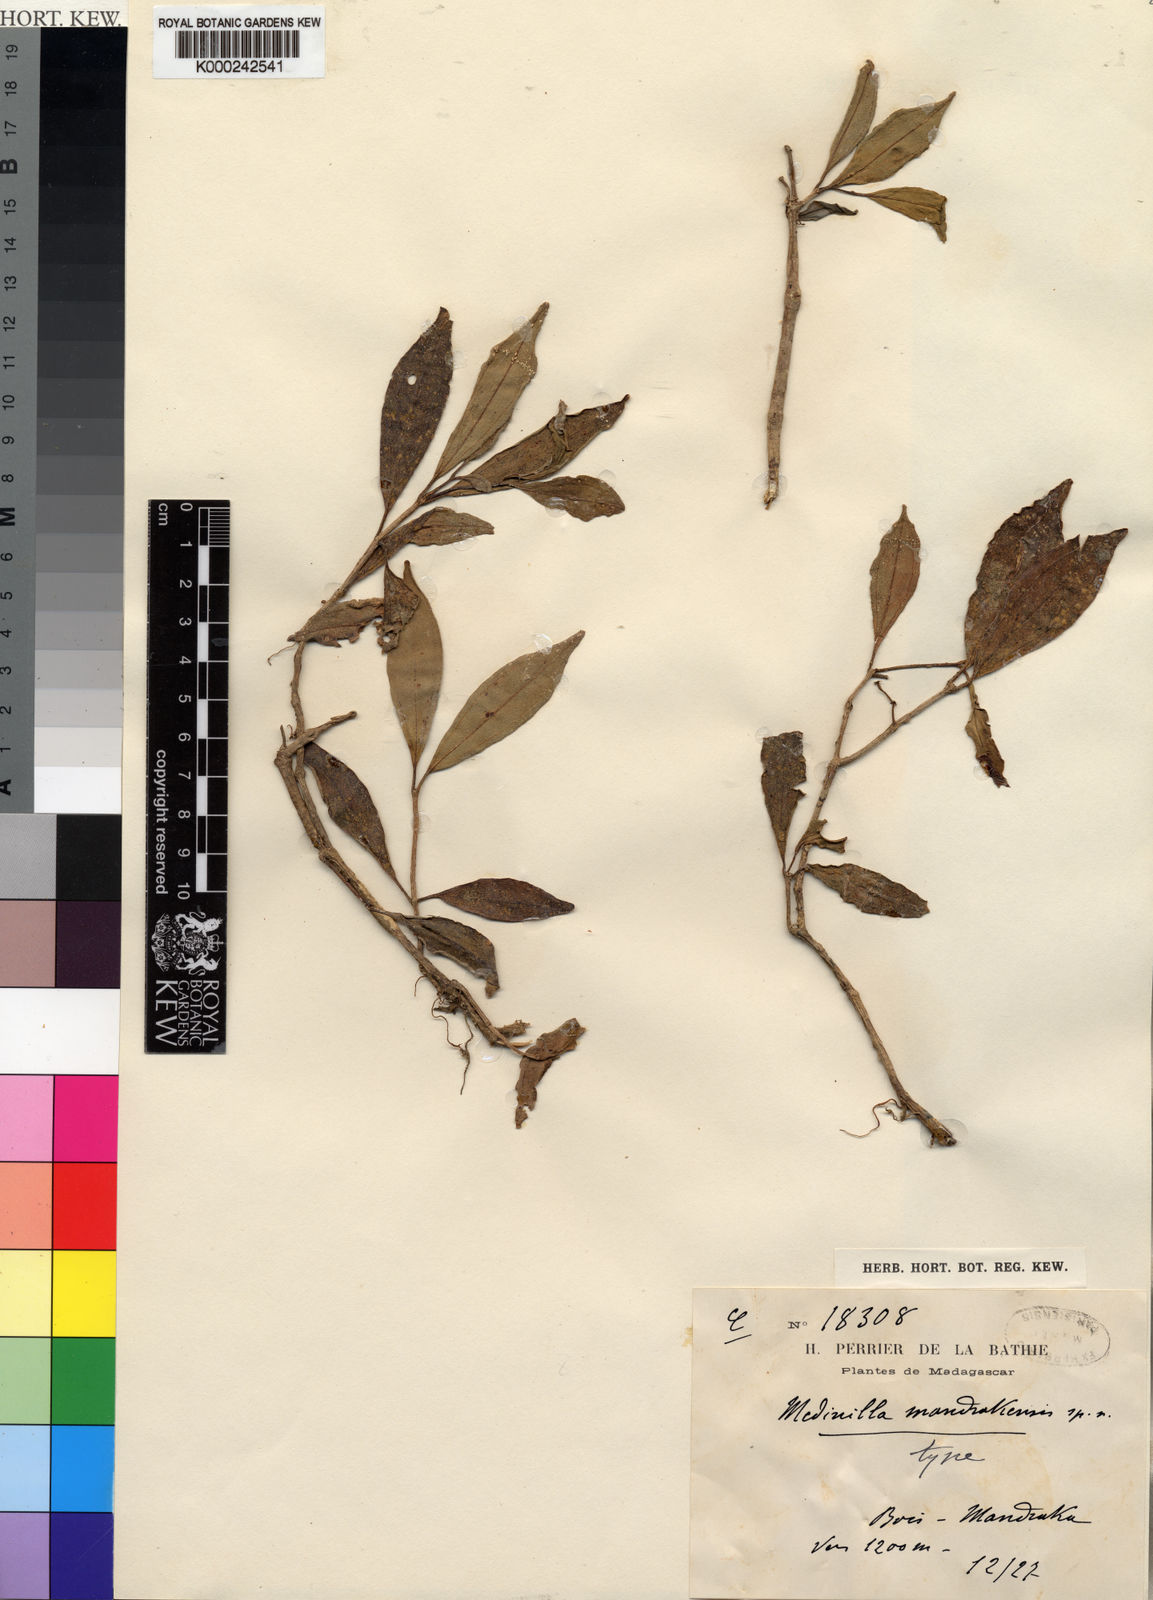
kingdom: Plantae
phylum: Tracheophyta
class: Magnoliopsida
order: Myrtales
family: Melastomataceae
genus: Medinilla
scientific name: Medinilla mandrakensis
